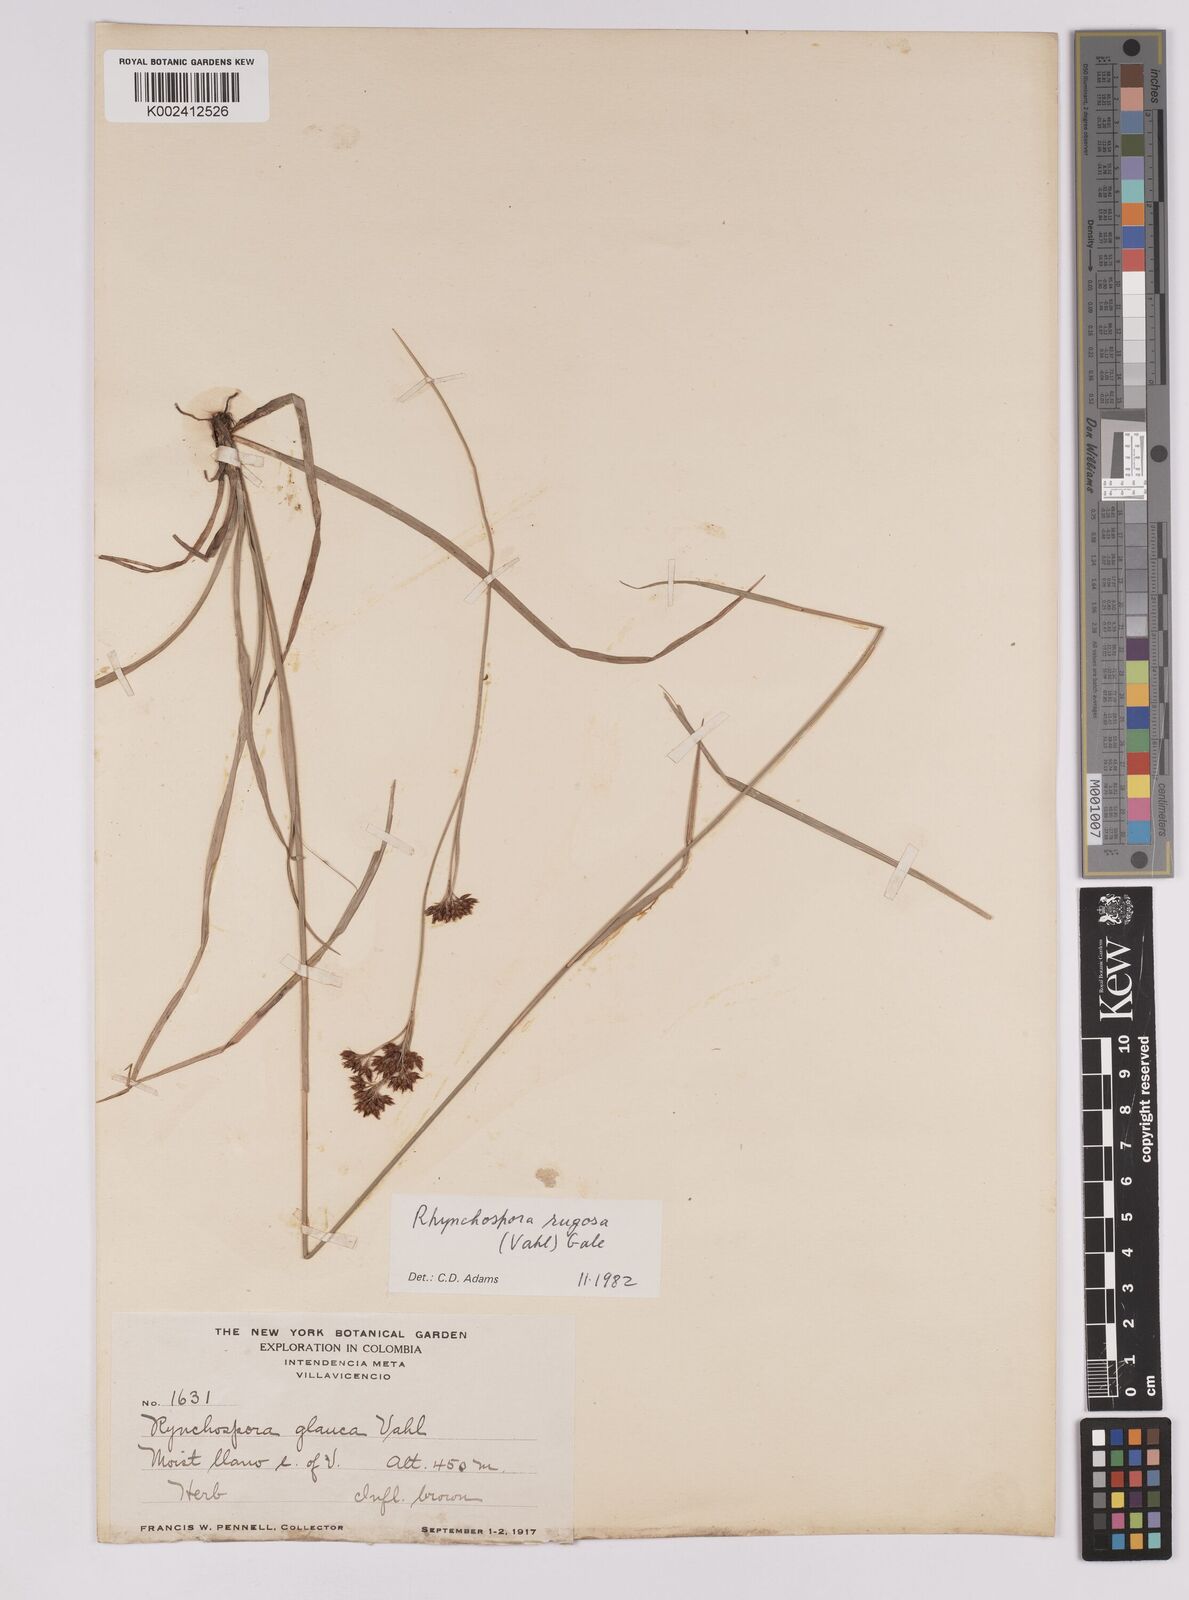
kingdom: Plantae
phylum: Tracheophyta
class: Liliopsida
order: Poales
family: Cyperaceae
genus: Rhynchospora
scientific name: Rhynchospora rugosa
